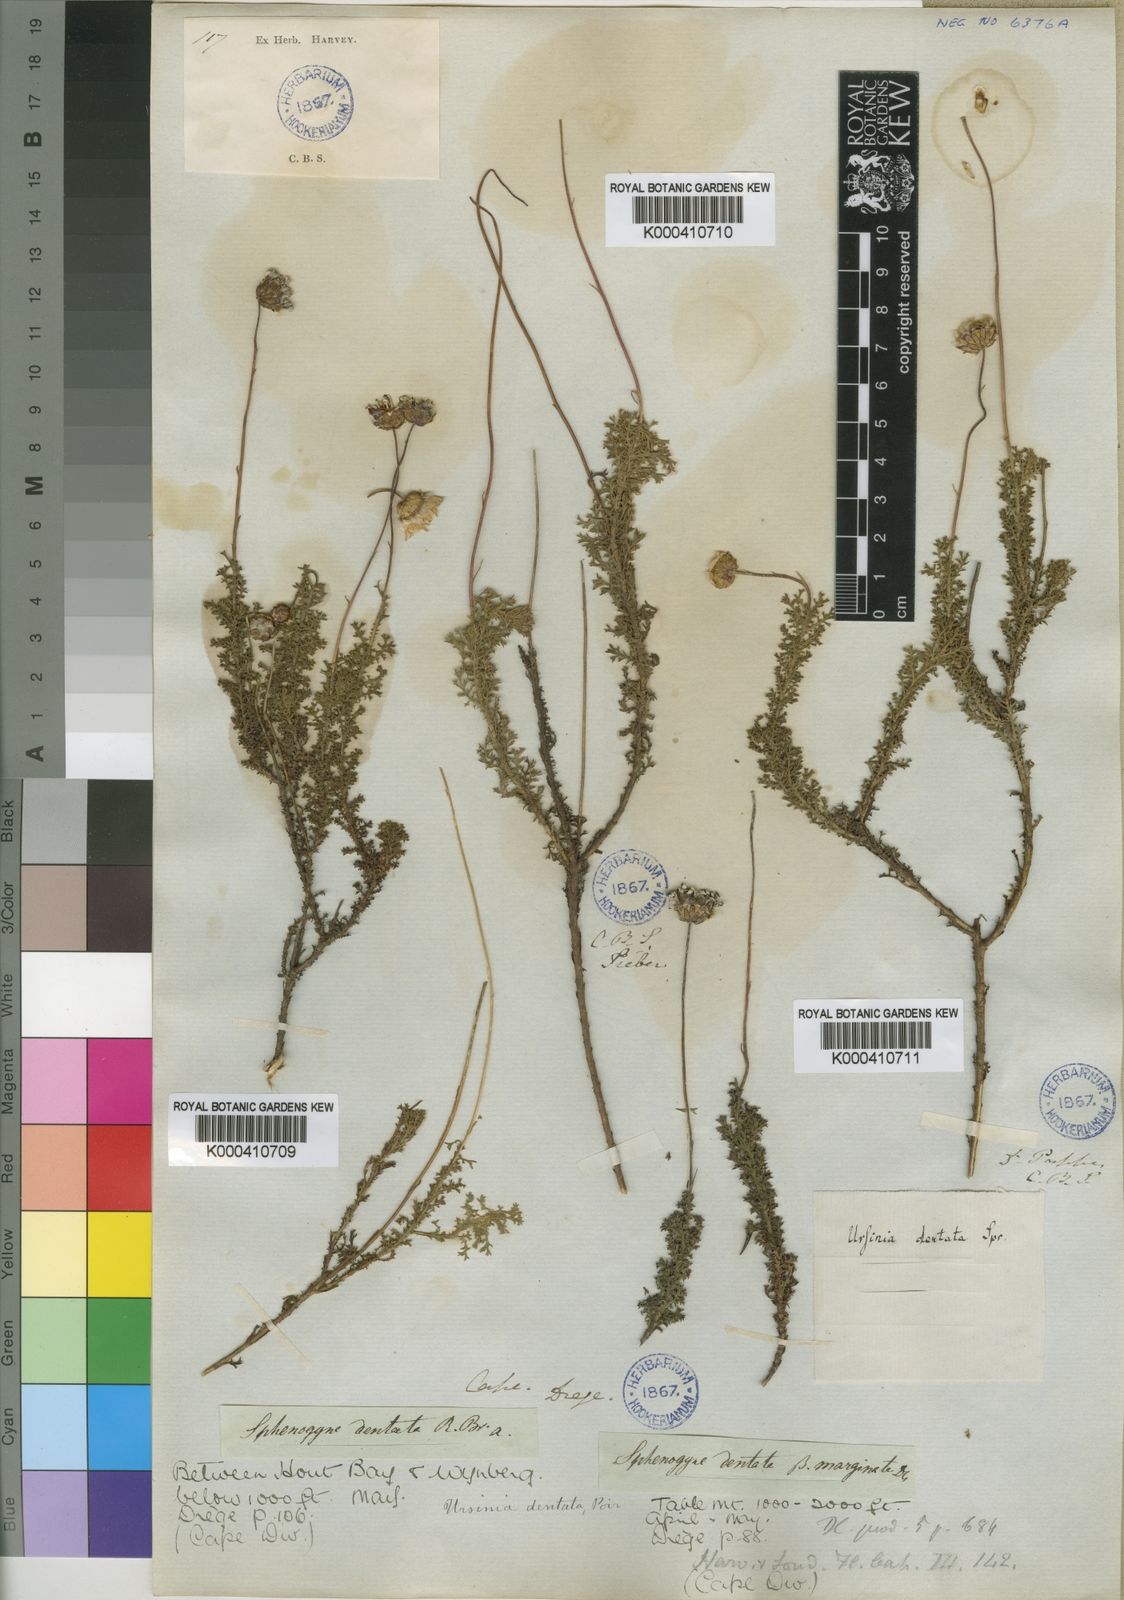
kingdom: Plantae
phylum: Tracheophyta
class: Magnoliopsida
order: Asterales
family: Asteraceae
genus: Ursinia
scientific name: Ursinia dentata
